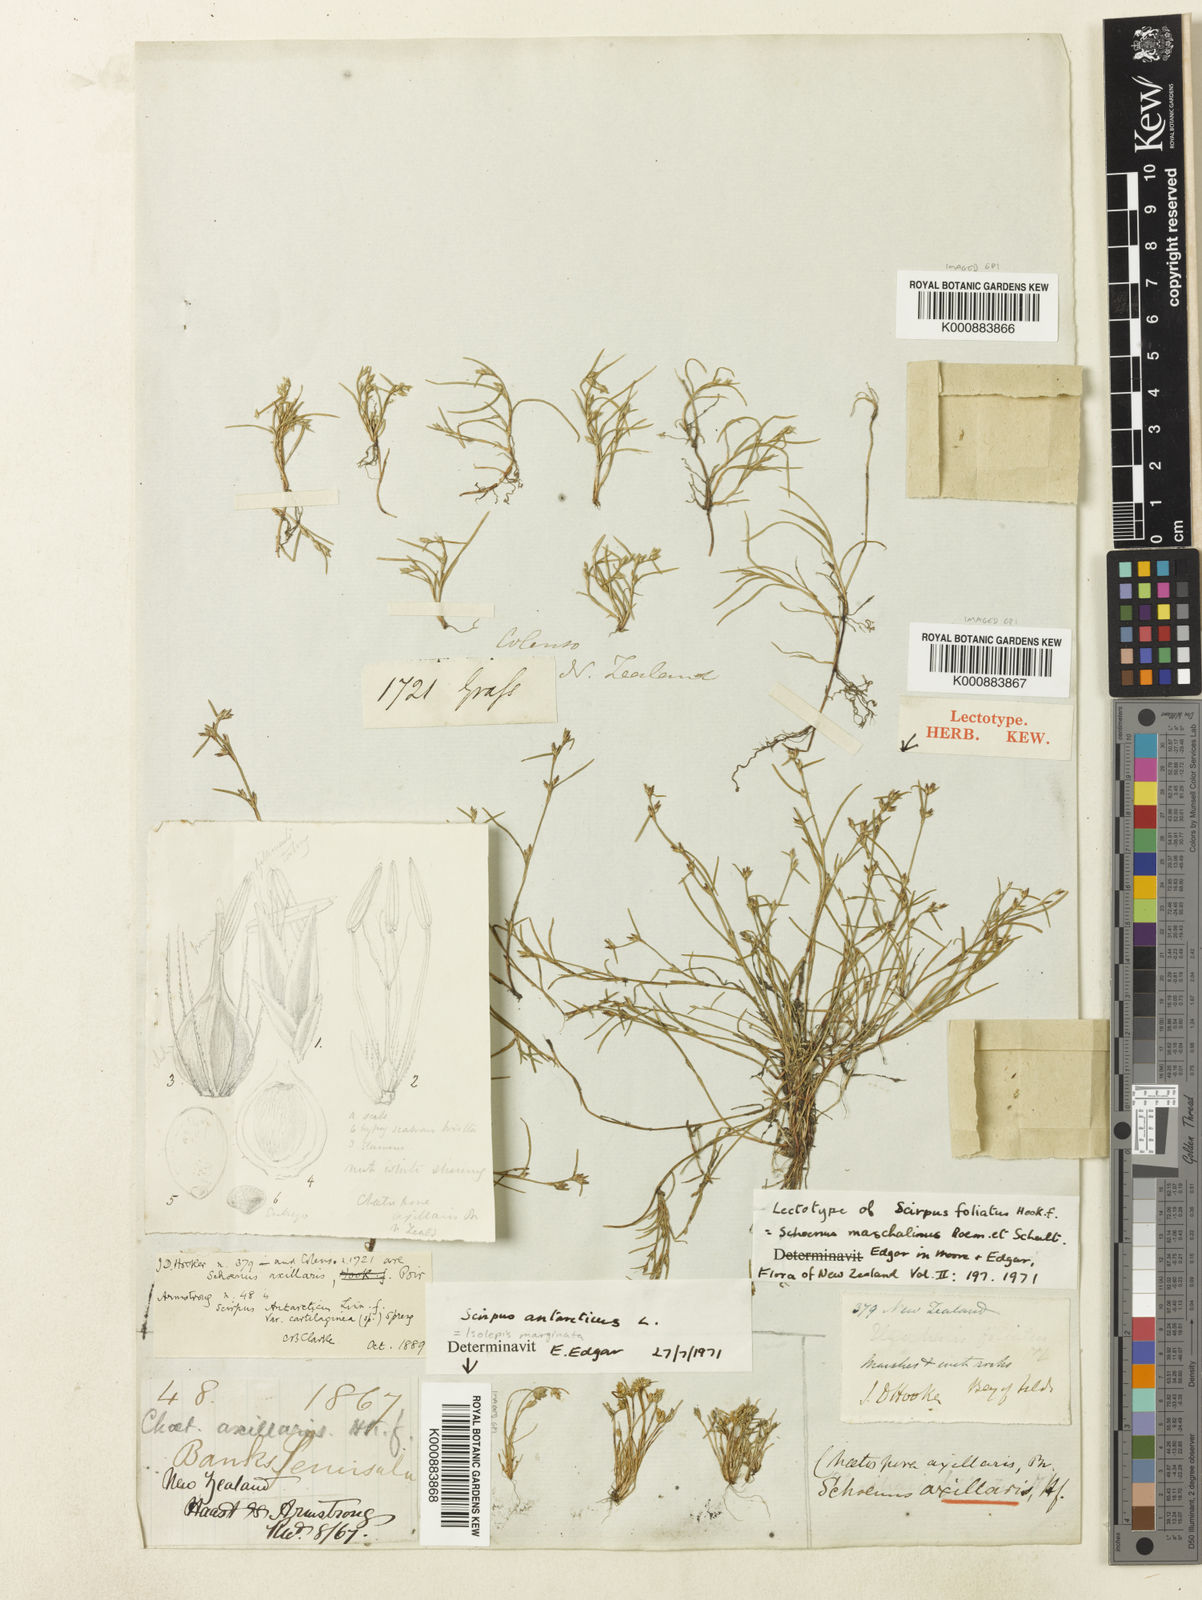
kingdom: Plantae
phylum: Tracheophyta
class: Liliopsida
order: Poales
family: Cyperaceae
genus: Schoenus
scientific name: Schoenus maschalinus
